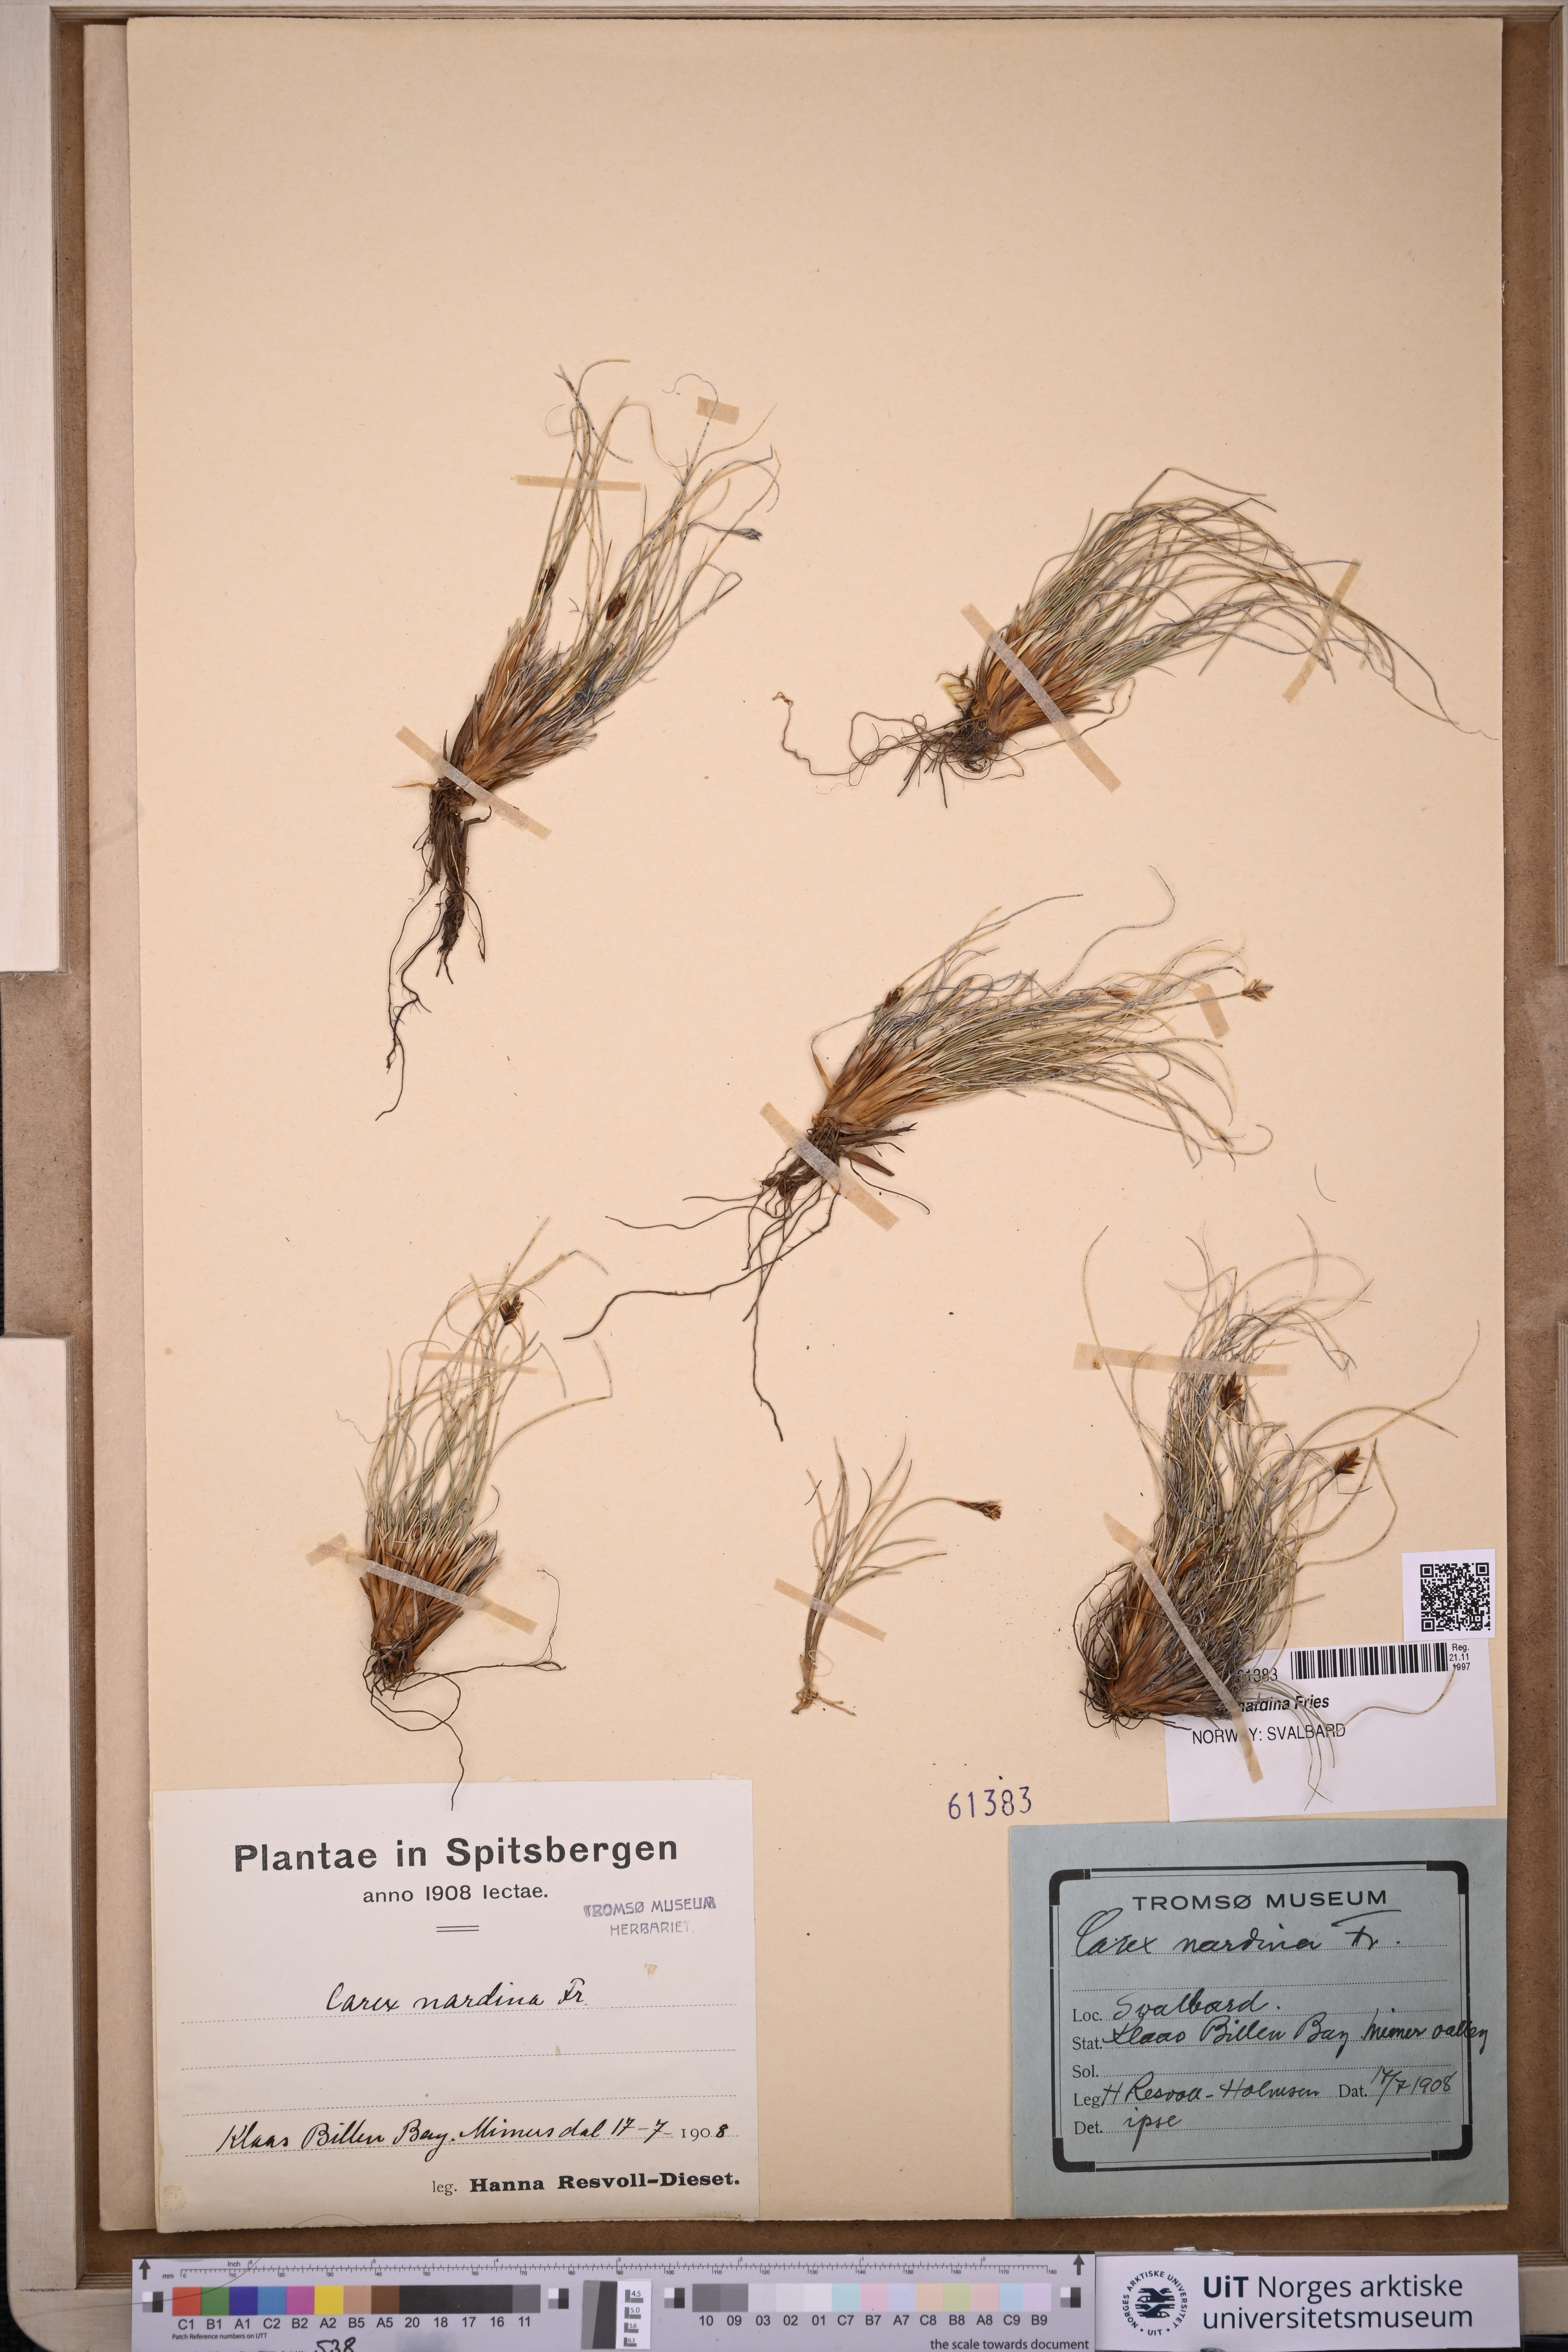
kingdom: Plantae
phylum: Tracheophyta
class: Liliopsida
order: Poales
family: Cyperaceae
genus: Carex
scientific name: Carex nardina
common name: Nard sedge
